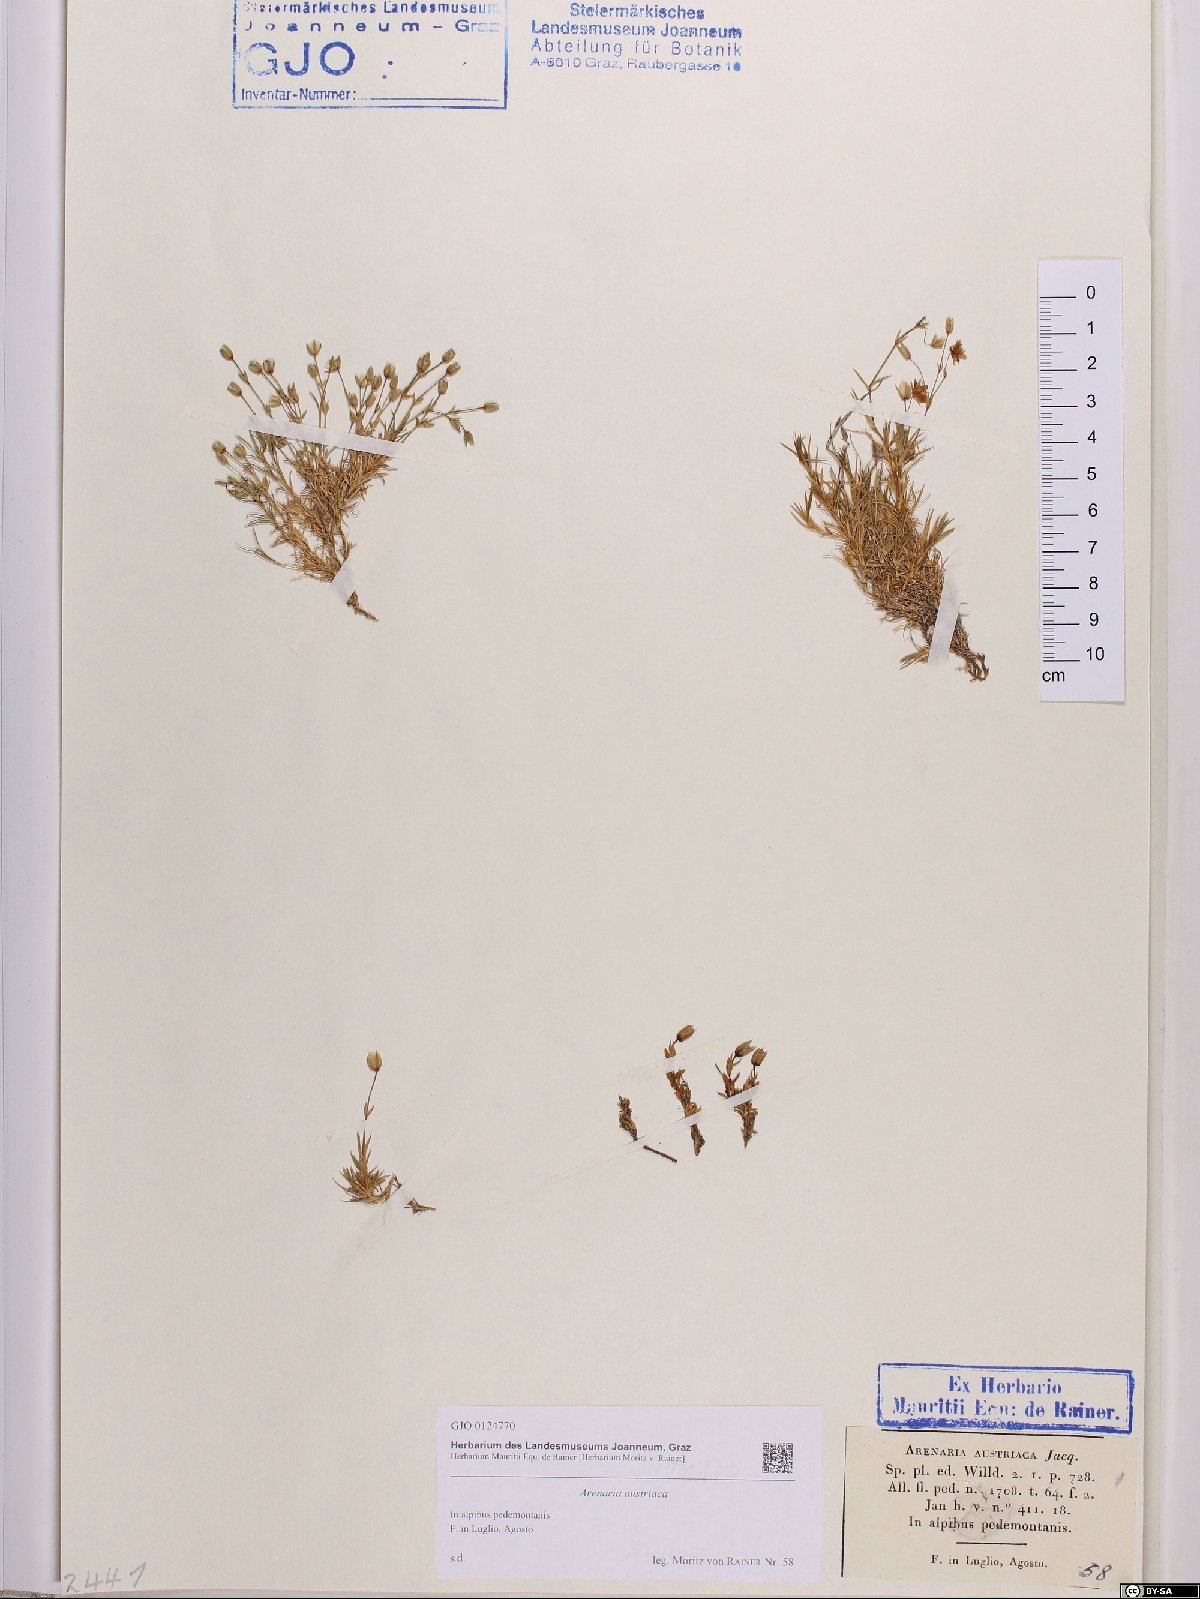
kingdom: Plantae
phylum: Tracheophyta
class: Magnoliopsida
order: Caryophyllales
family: Caryophyllaceae
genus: Sabulina
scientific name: Sabulina austriaca
